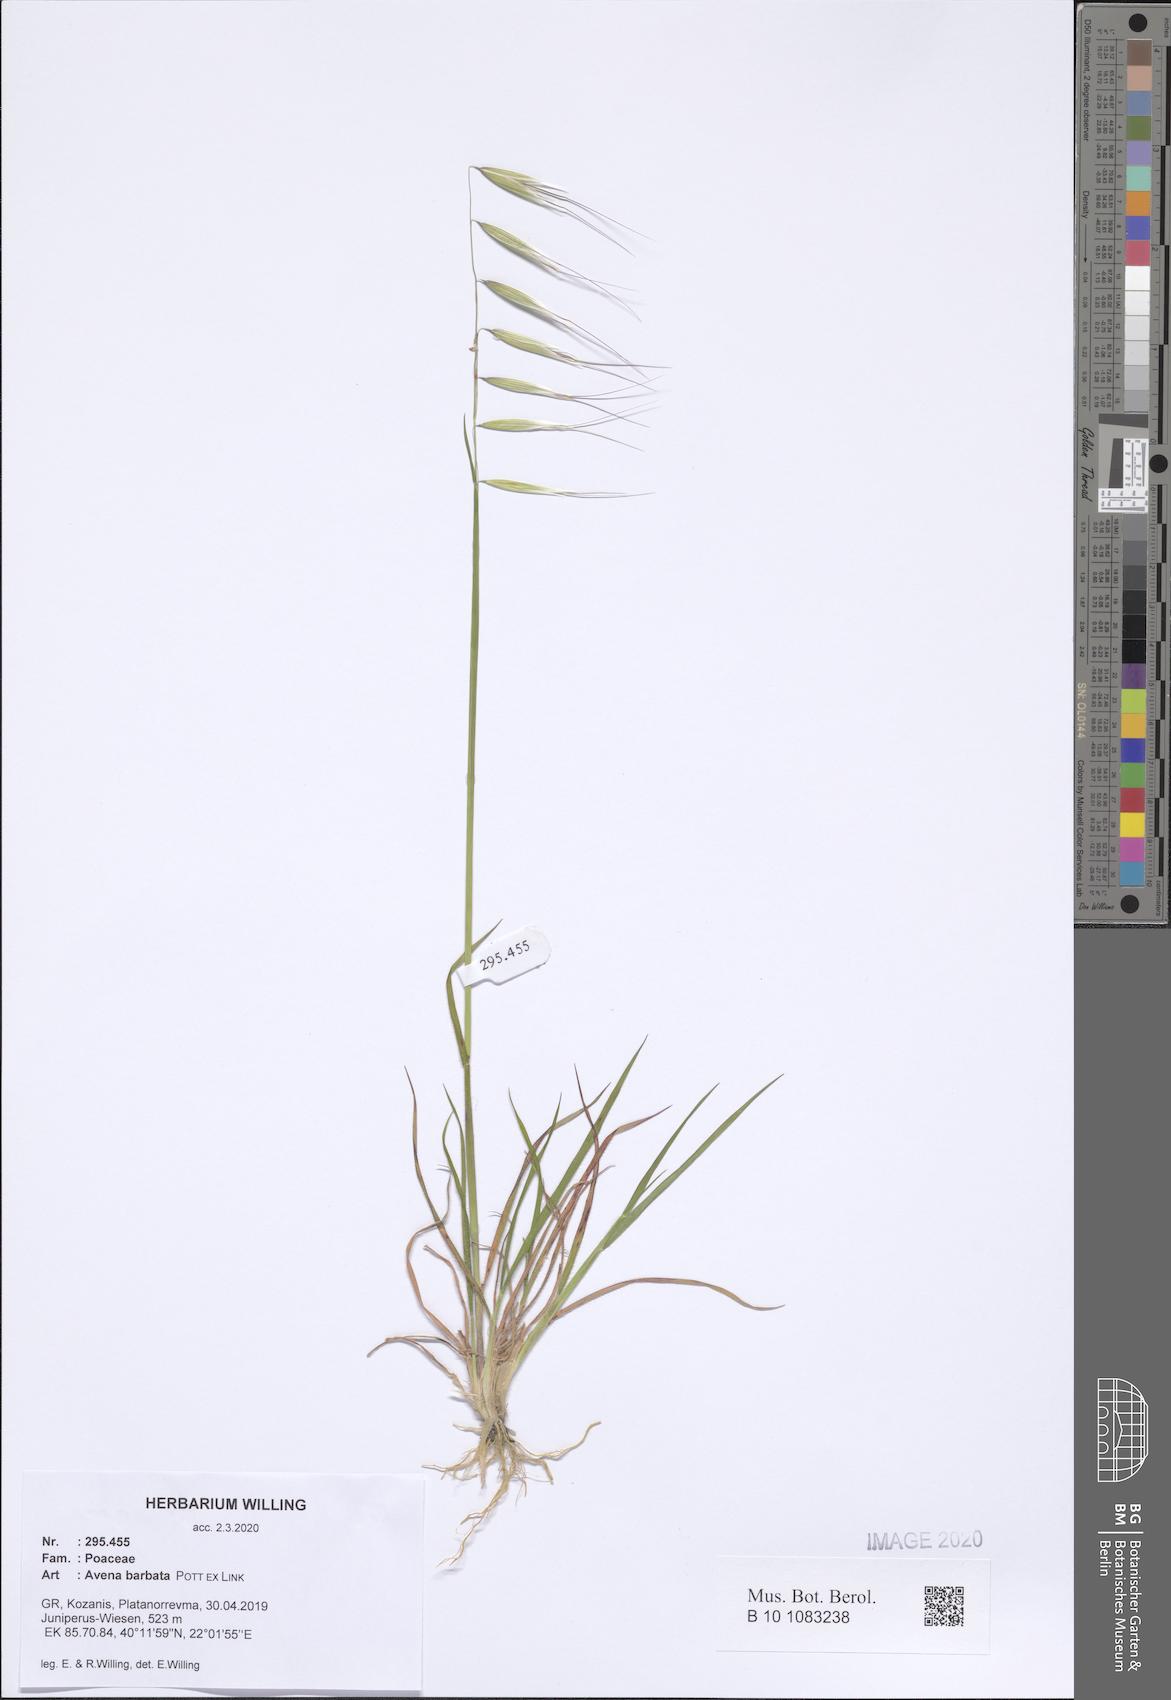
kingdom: Plantae
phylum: Tracheophyta
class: Liliopsida
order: Poales
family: Poaceae
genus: Avena
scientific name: Avena barbata
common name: Slender oat
